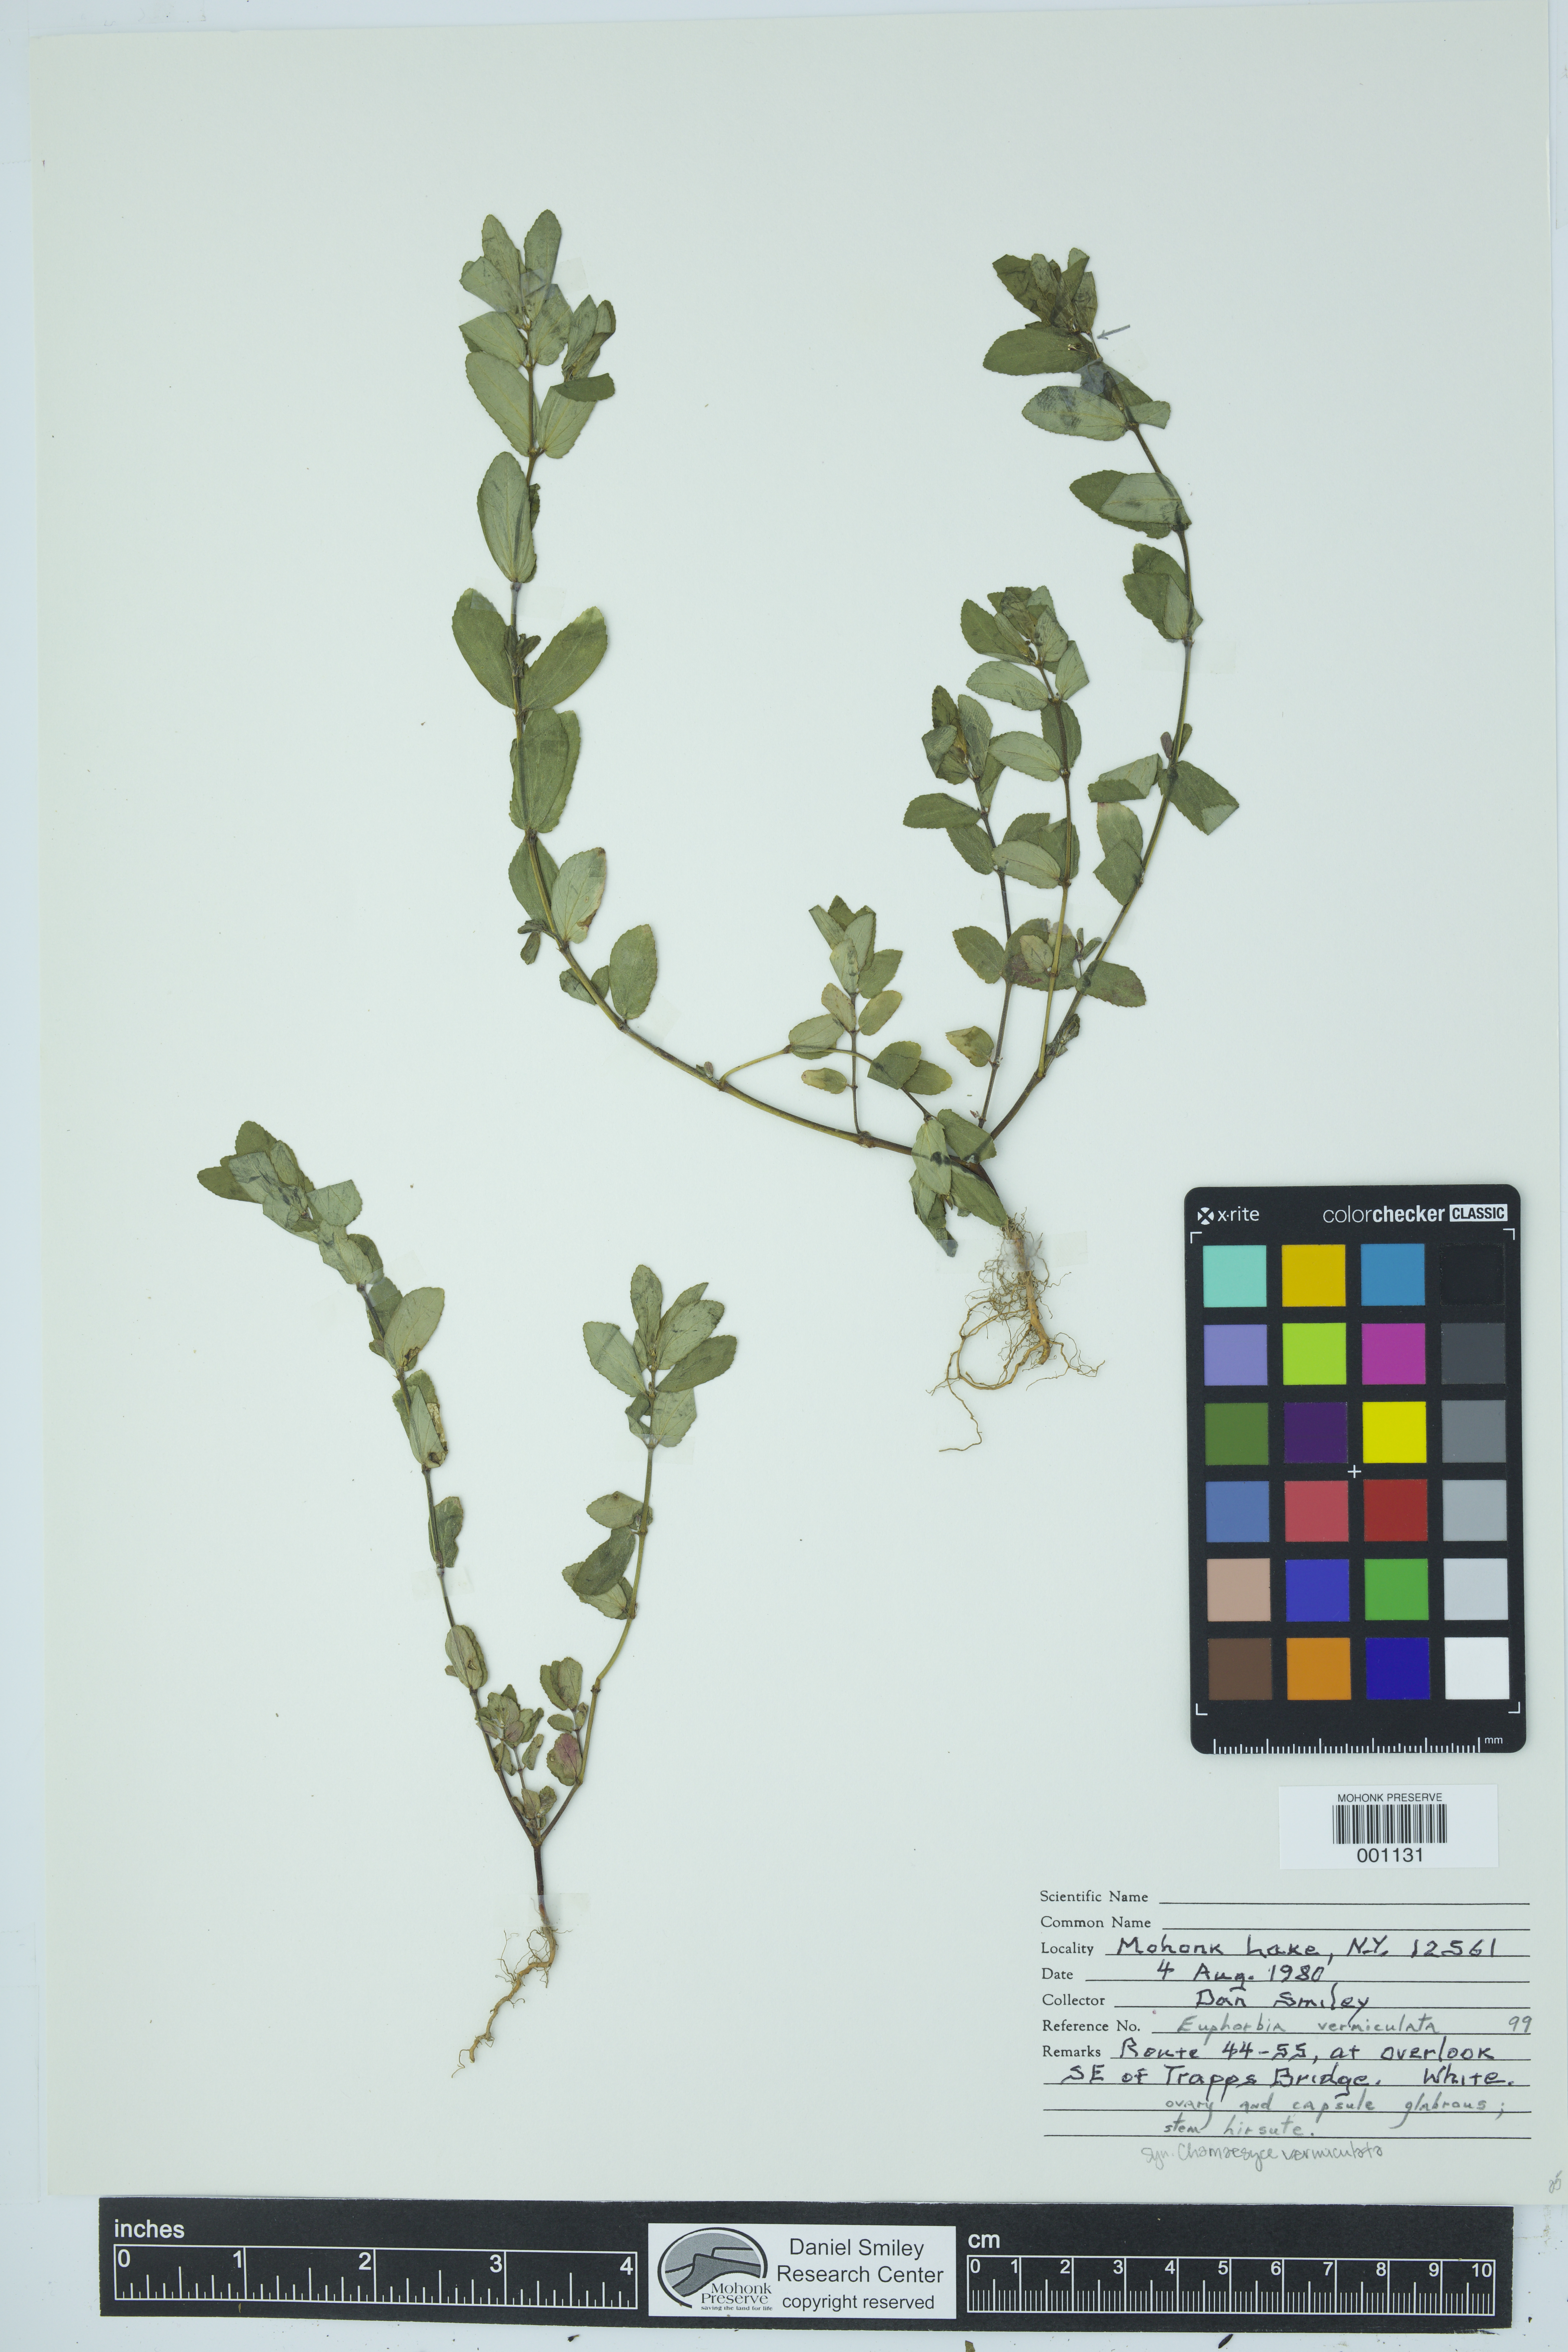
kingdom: Plantae
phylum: Tracheophyta
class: Magnoliopsida
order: Malpighiales
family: Euphorbiaceae
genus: Euphorbia
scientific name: Euphorbia vermiculata
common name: Hairy spurge
